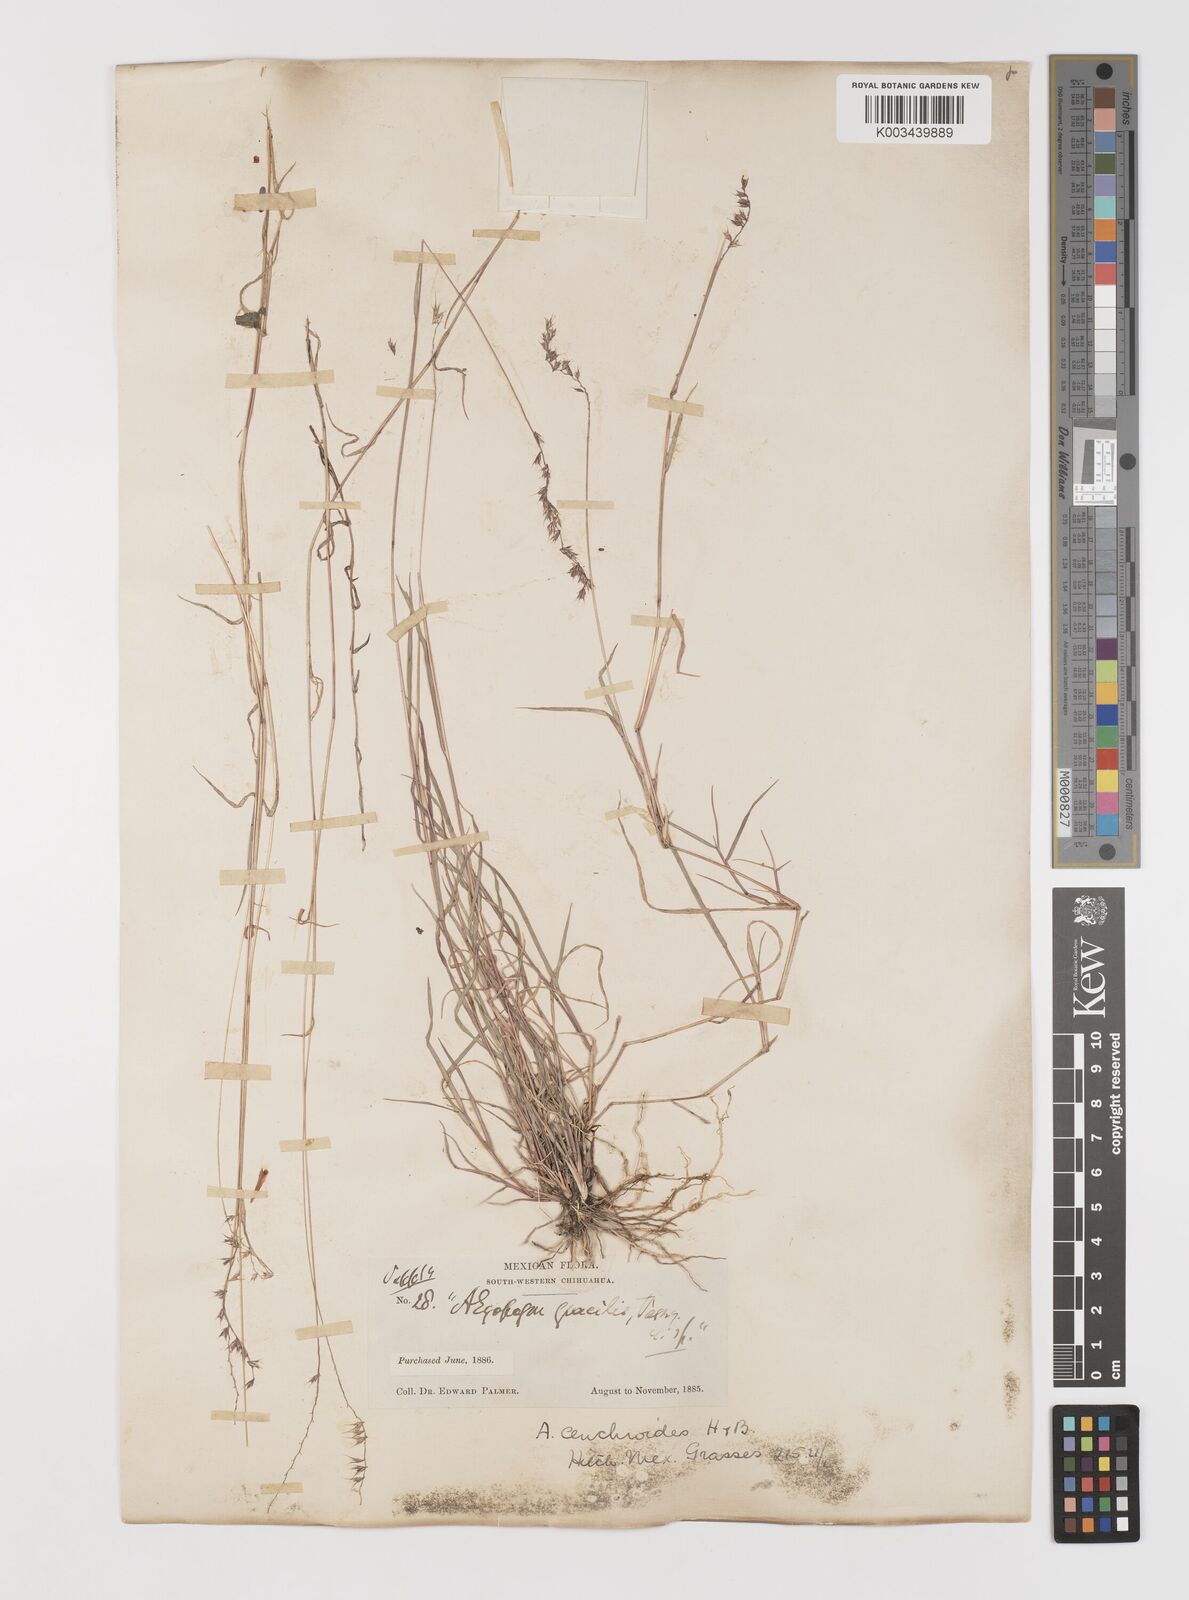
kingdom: Plantae
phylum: Tracheophyta
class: Liliopsida
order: Poales
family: Poaceae
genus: Muhlenbergia
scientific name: Muhlenbergia cenchroides
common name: Relaxgrass
